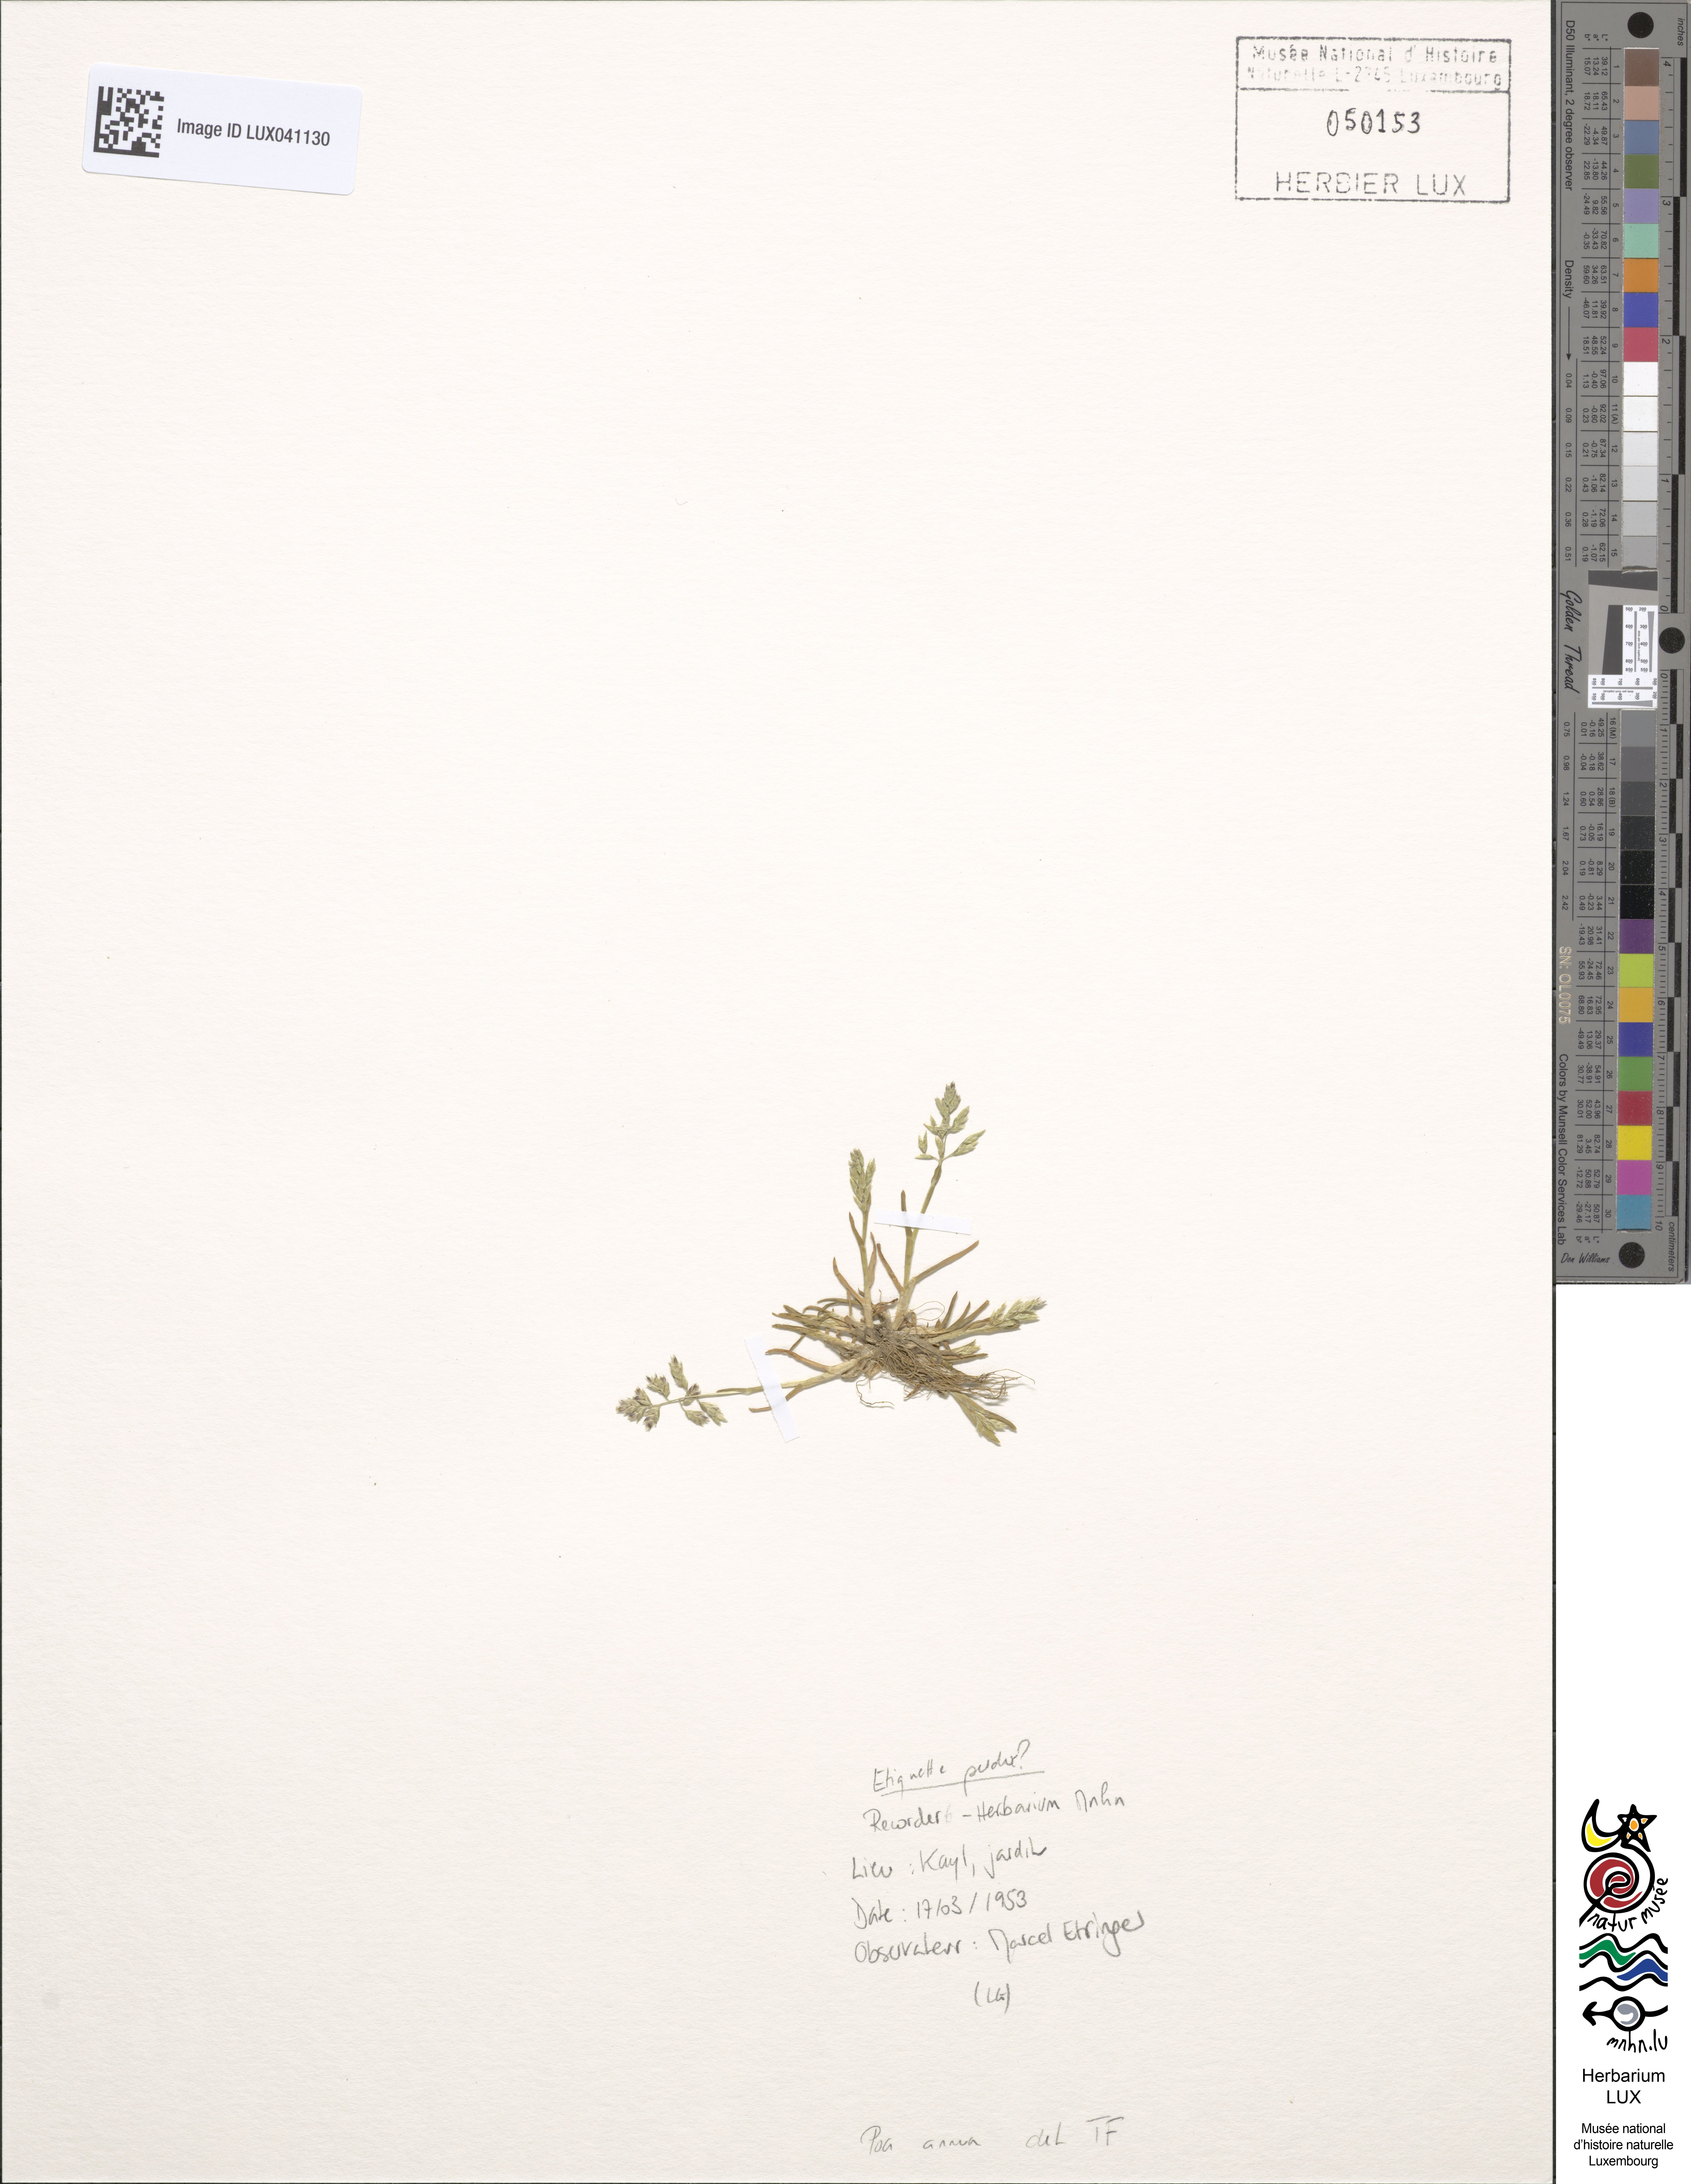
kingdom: Plantae
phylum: Tracheophyta
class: Liliopsida
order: Poales
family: Poaceae
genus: Poa
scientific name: Poa annua
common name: Annual bluegrass
